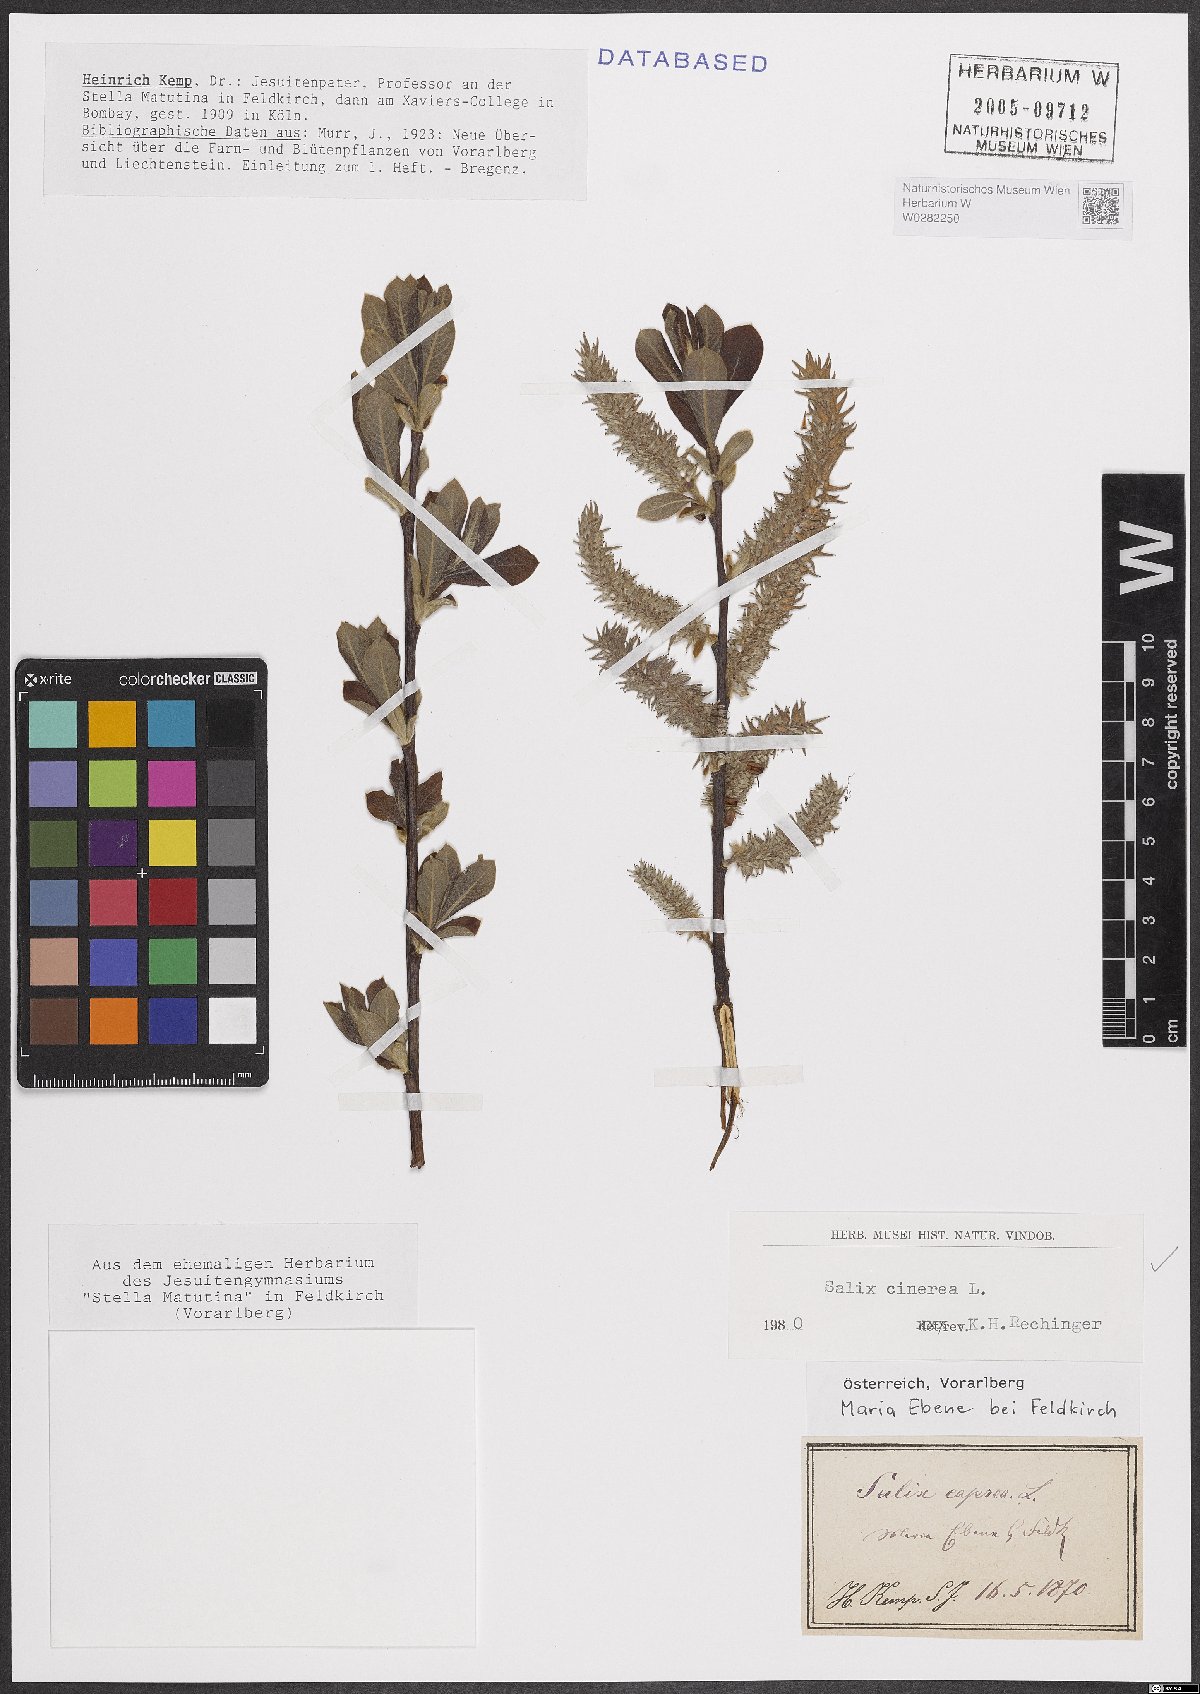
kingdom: Plantae
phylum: Tracheophyta
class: Magnoliopsida
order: Malpighiales
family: Salicaceae
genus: Salix
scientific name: Salix cinerea
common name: Common sallow
